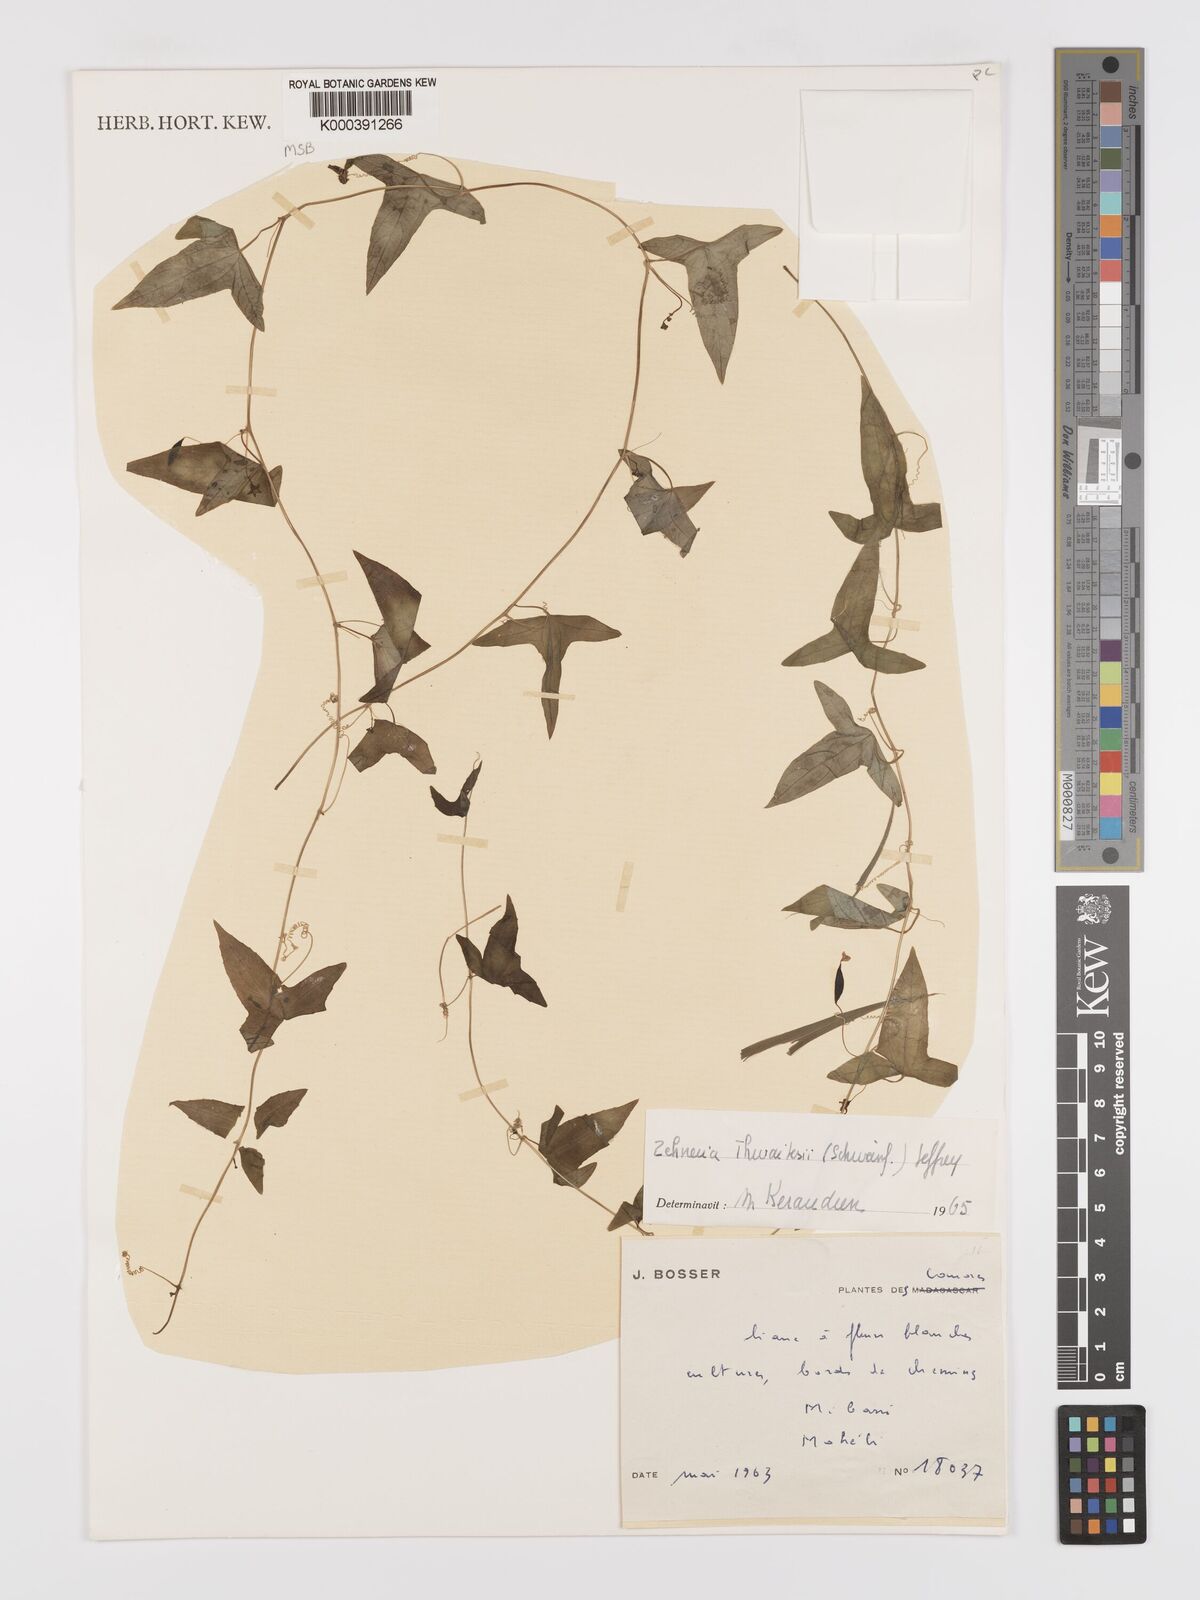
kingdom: Plantae
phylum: Tracheophyta
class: Magnoliopsida
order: Cucurbitales
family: Cucurbitaceae
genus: Zehneria
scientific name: Zehneria thwaitesii
